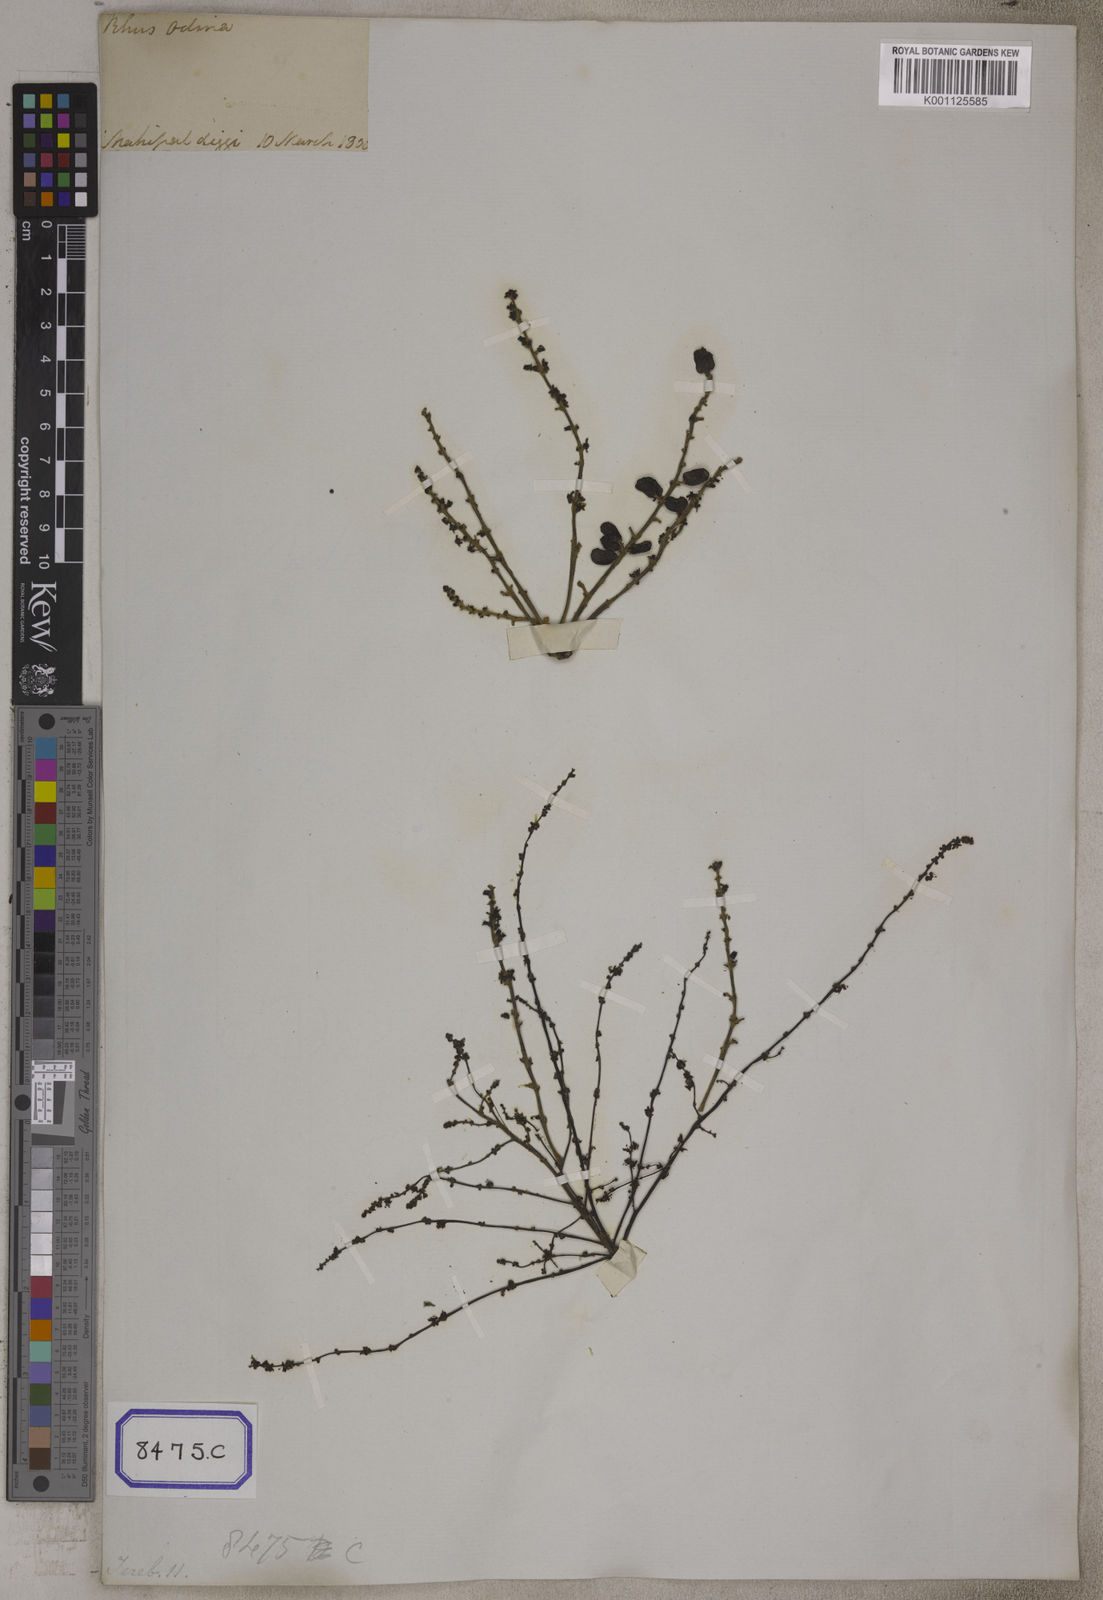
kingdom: Plantae
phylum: Tracheophyta
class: Magnoliopsida
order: Sapindales
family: Anacardiaceae
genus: Lannea
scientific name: Lannea coromandelica
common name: Indian ash tree
